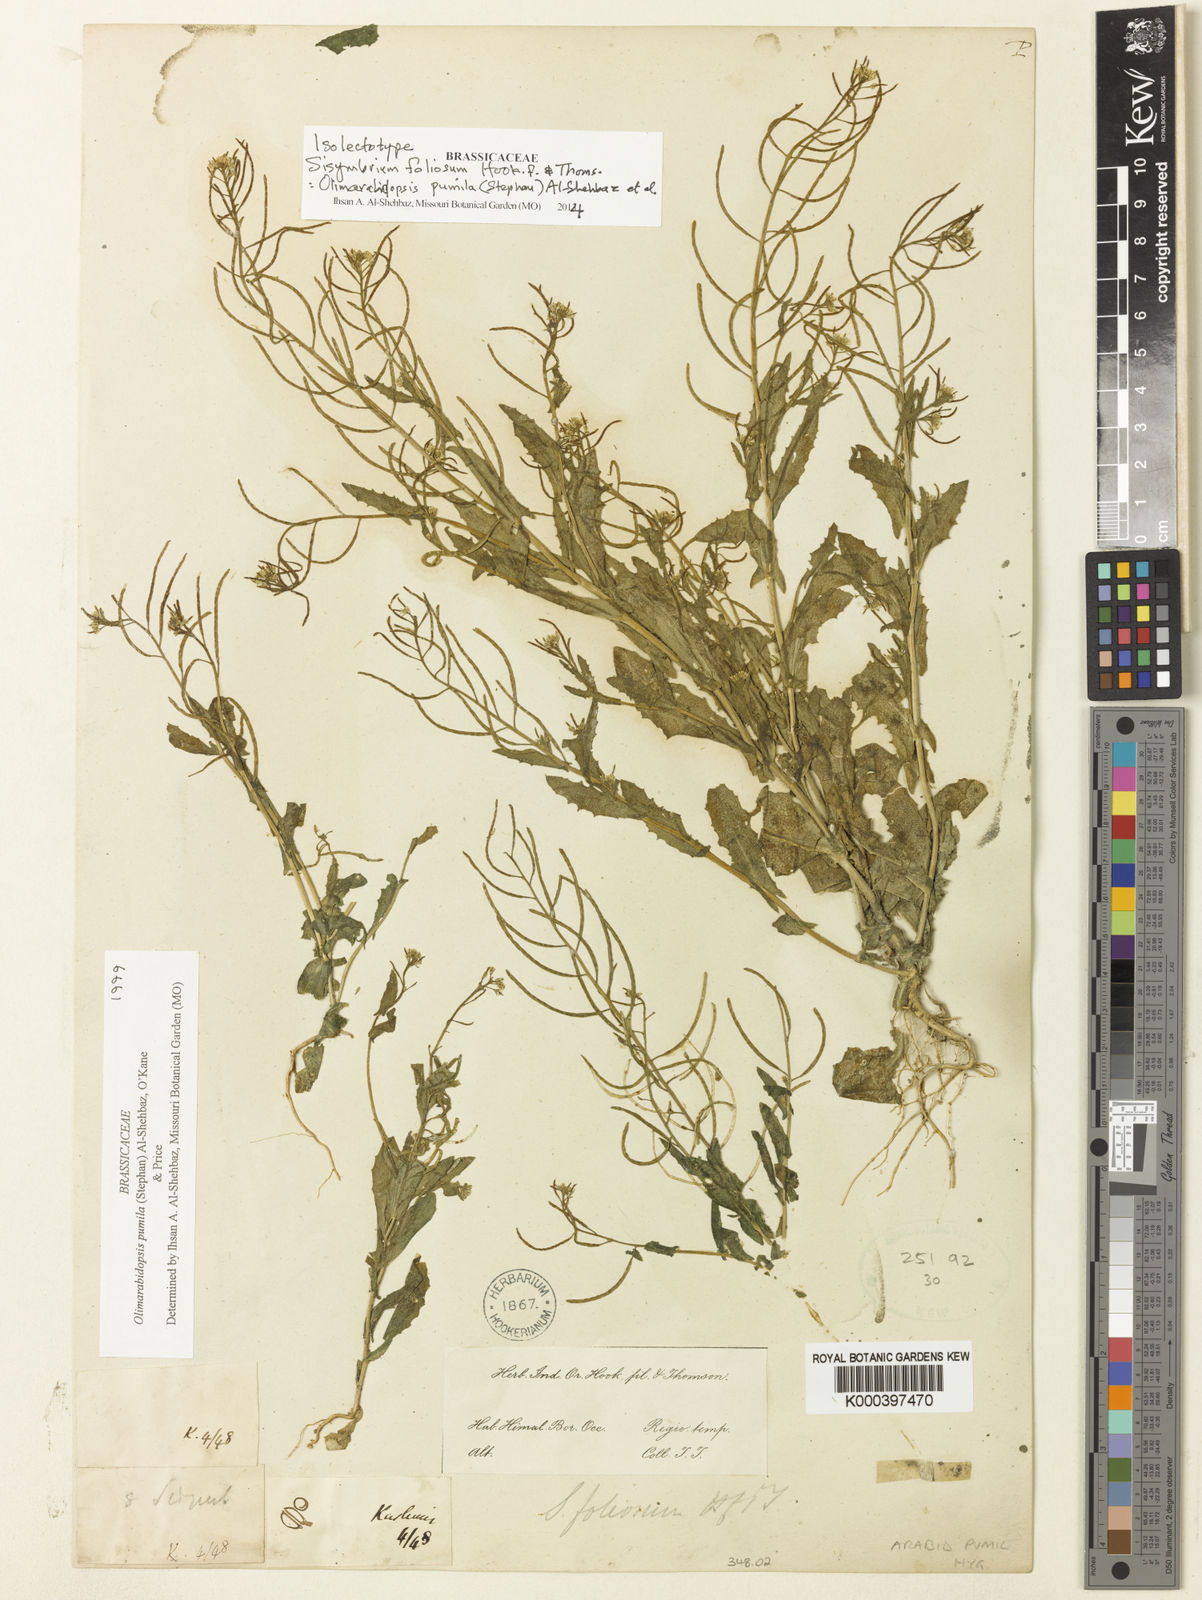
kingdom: Plantae
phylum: Tracheophyta
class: Magnoliopsida
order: Brassicales
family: Brassicaceae
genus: Olimarabidopsis
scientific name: Olimarabidopsis
